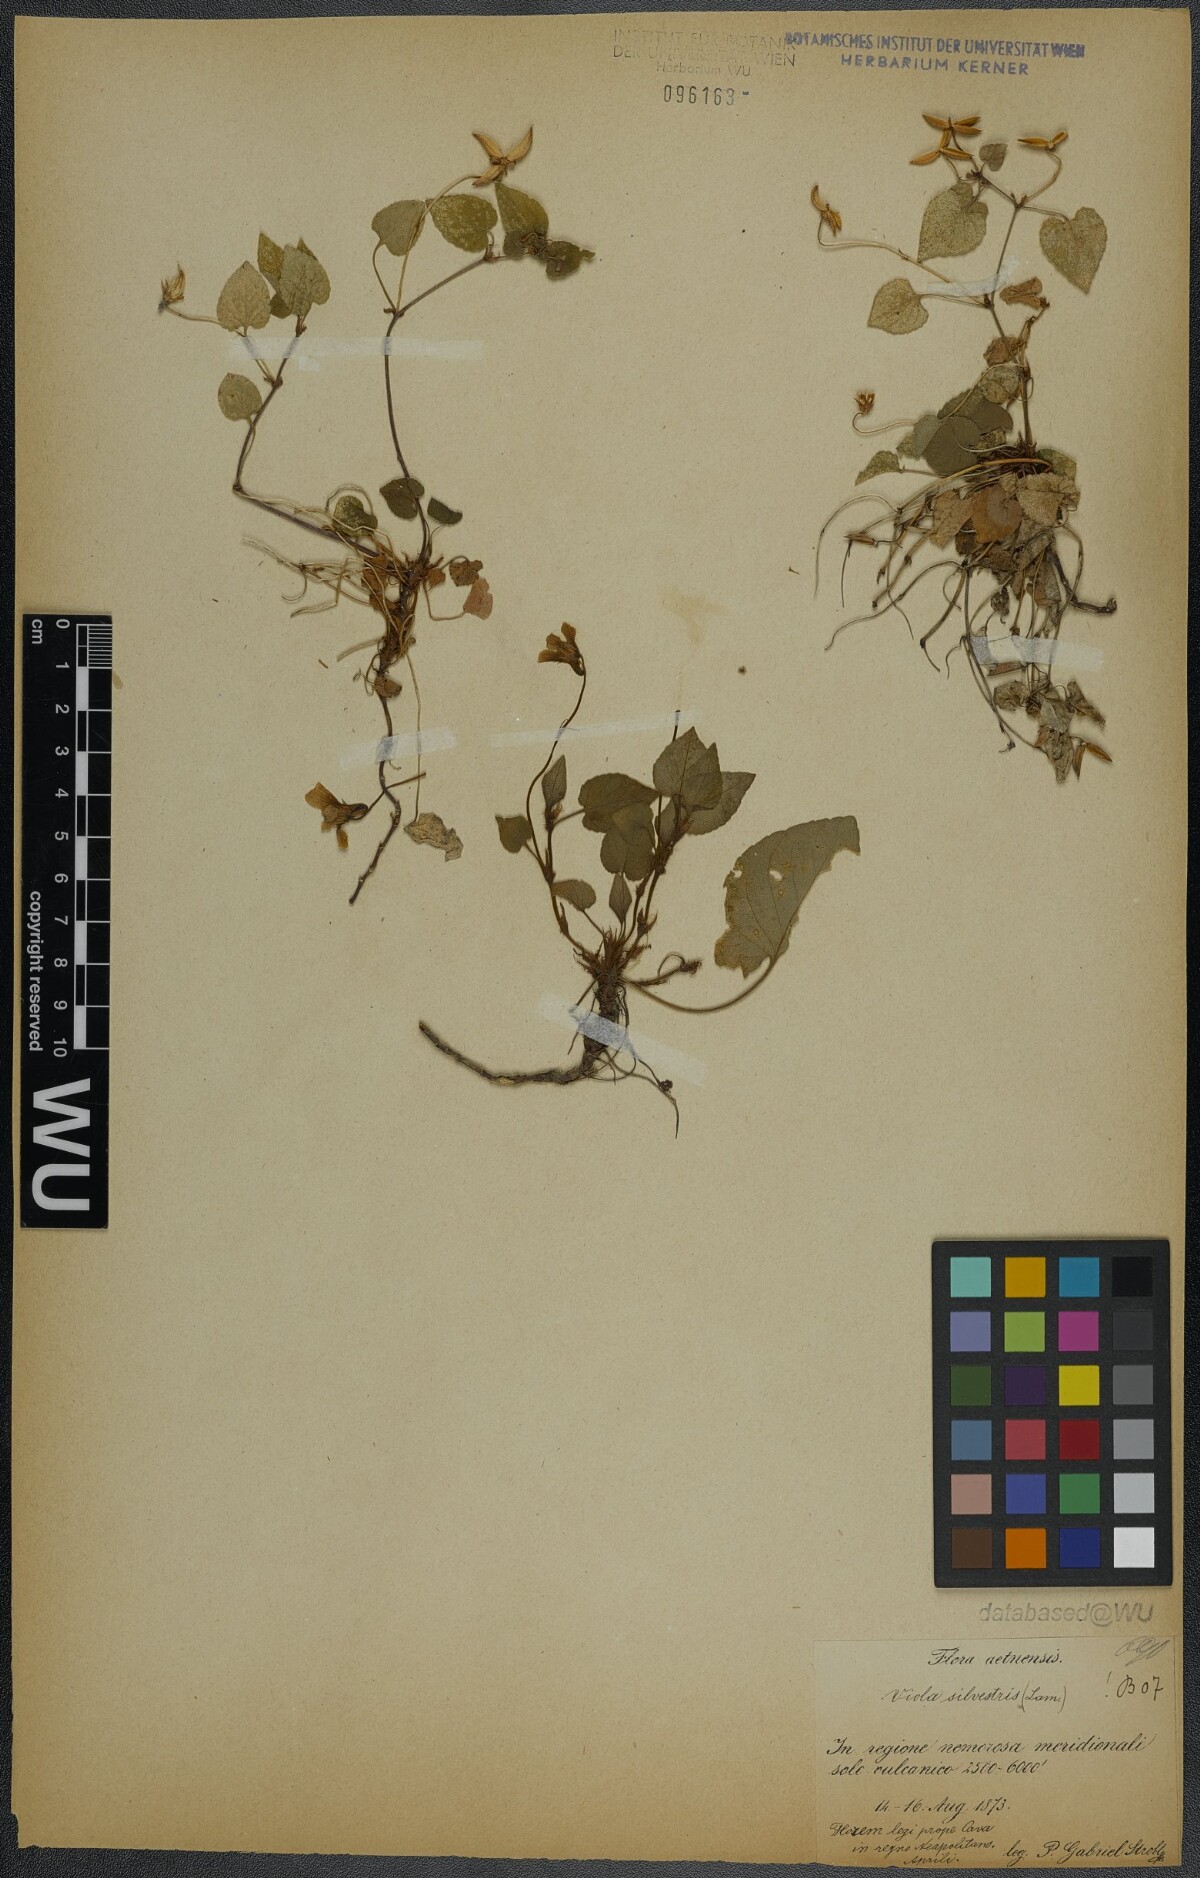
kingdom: Plantae
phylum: Tracheophyta
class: Magnoliopsida
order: Malpighiales
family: Violaceae
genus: Viola
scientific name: Viola reichenbachiana
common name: Early dog-violet
